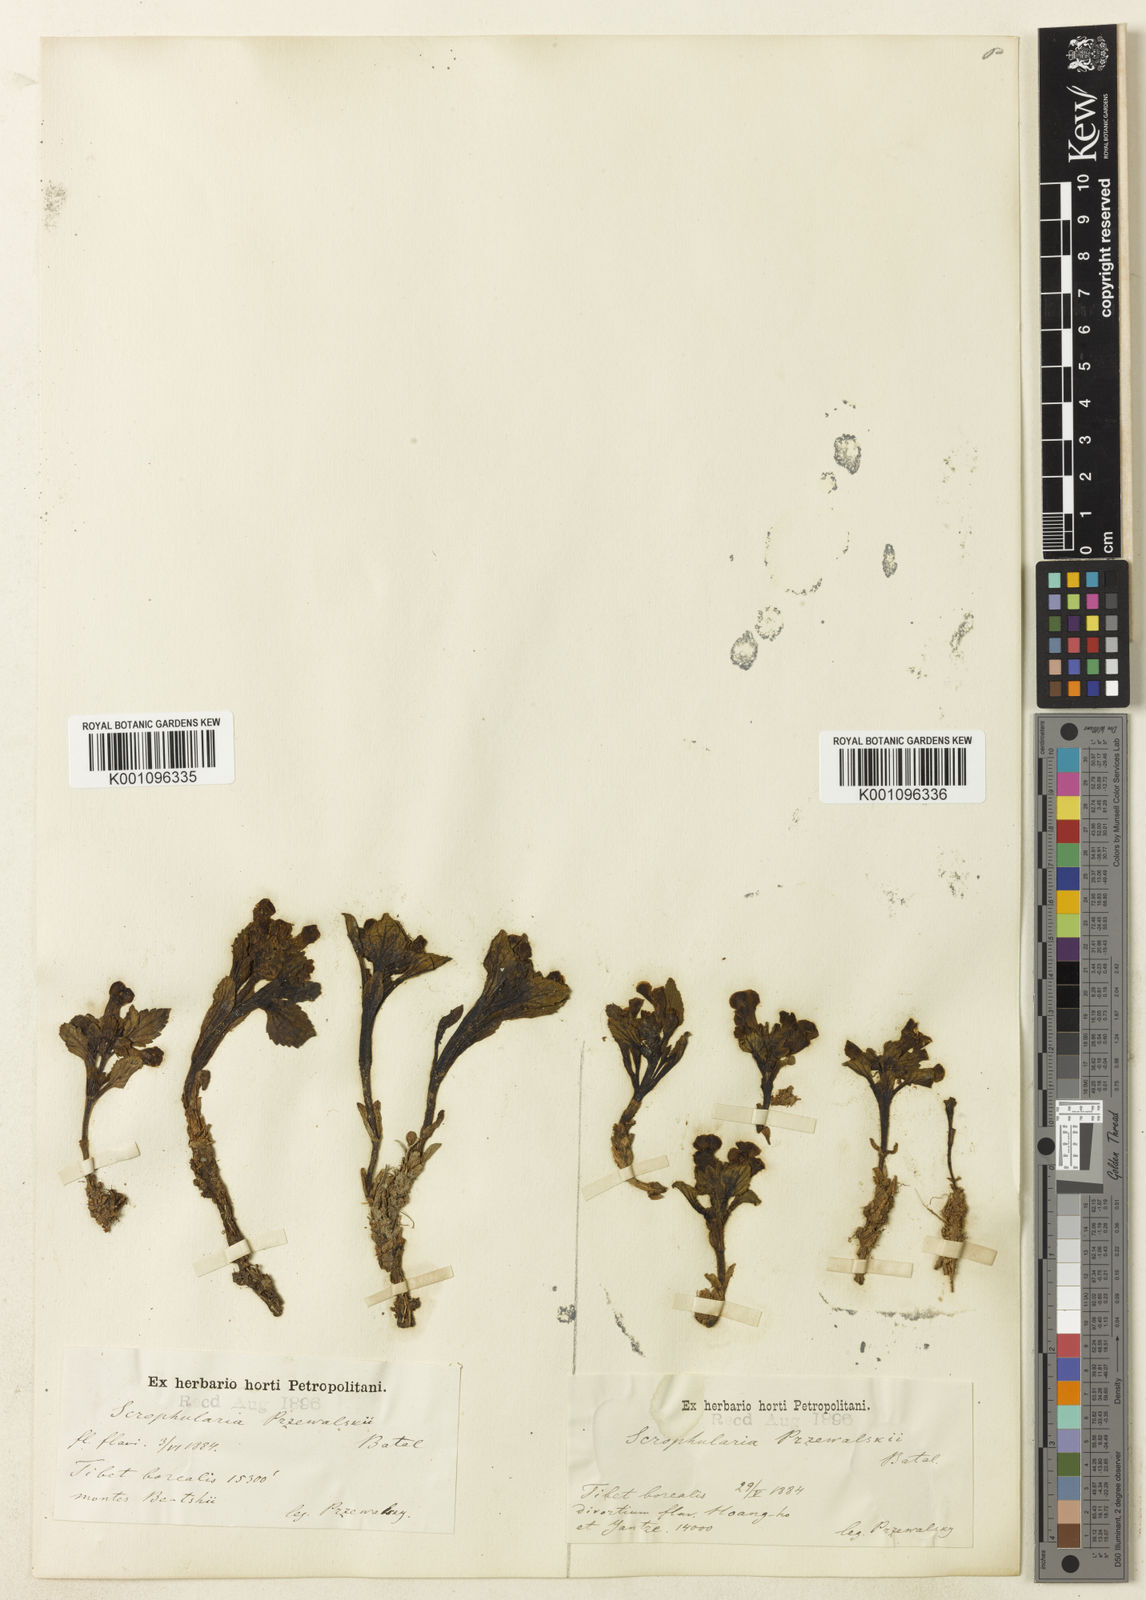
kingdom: Plantae
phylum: Tracheophyta
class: Magnoliopsida
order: Lamiales
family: Scrophulariaceae
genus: Scrophularia
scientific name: Scrophularia przewalskii
